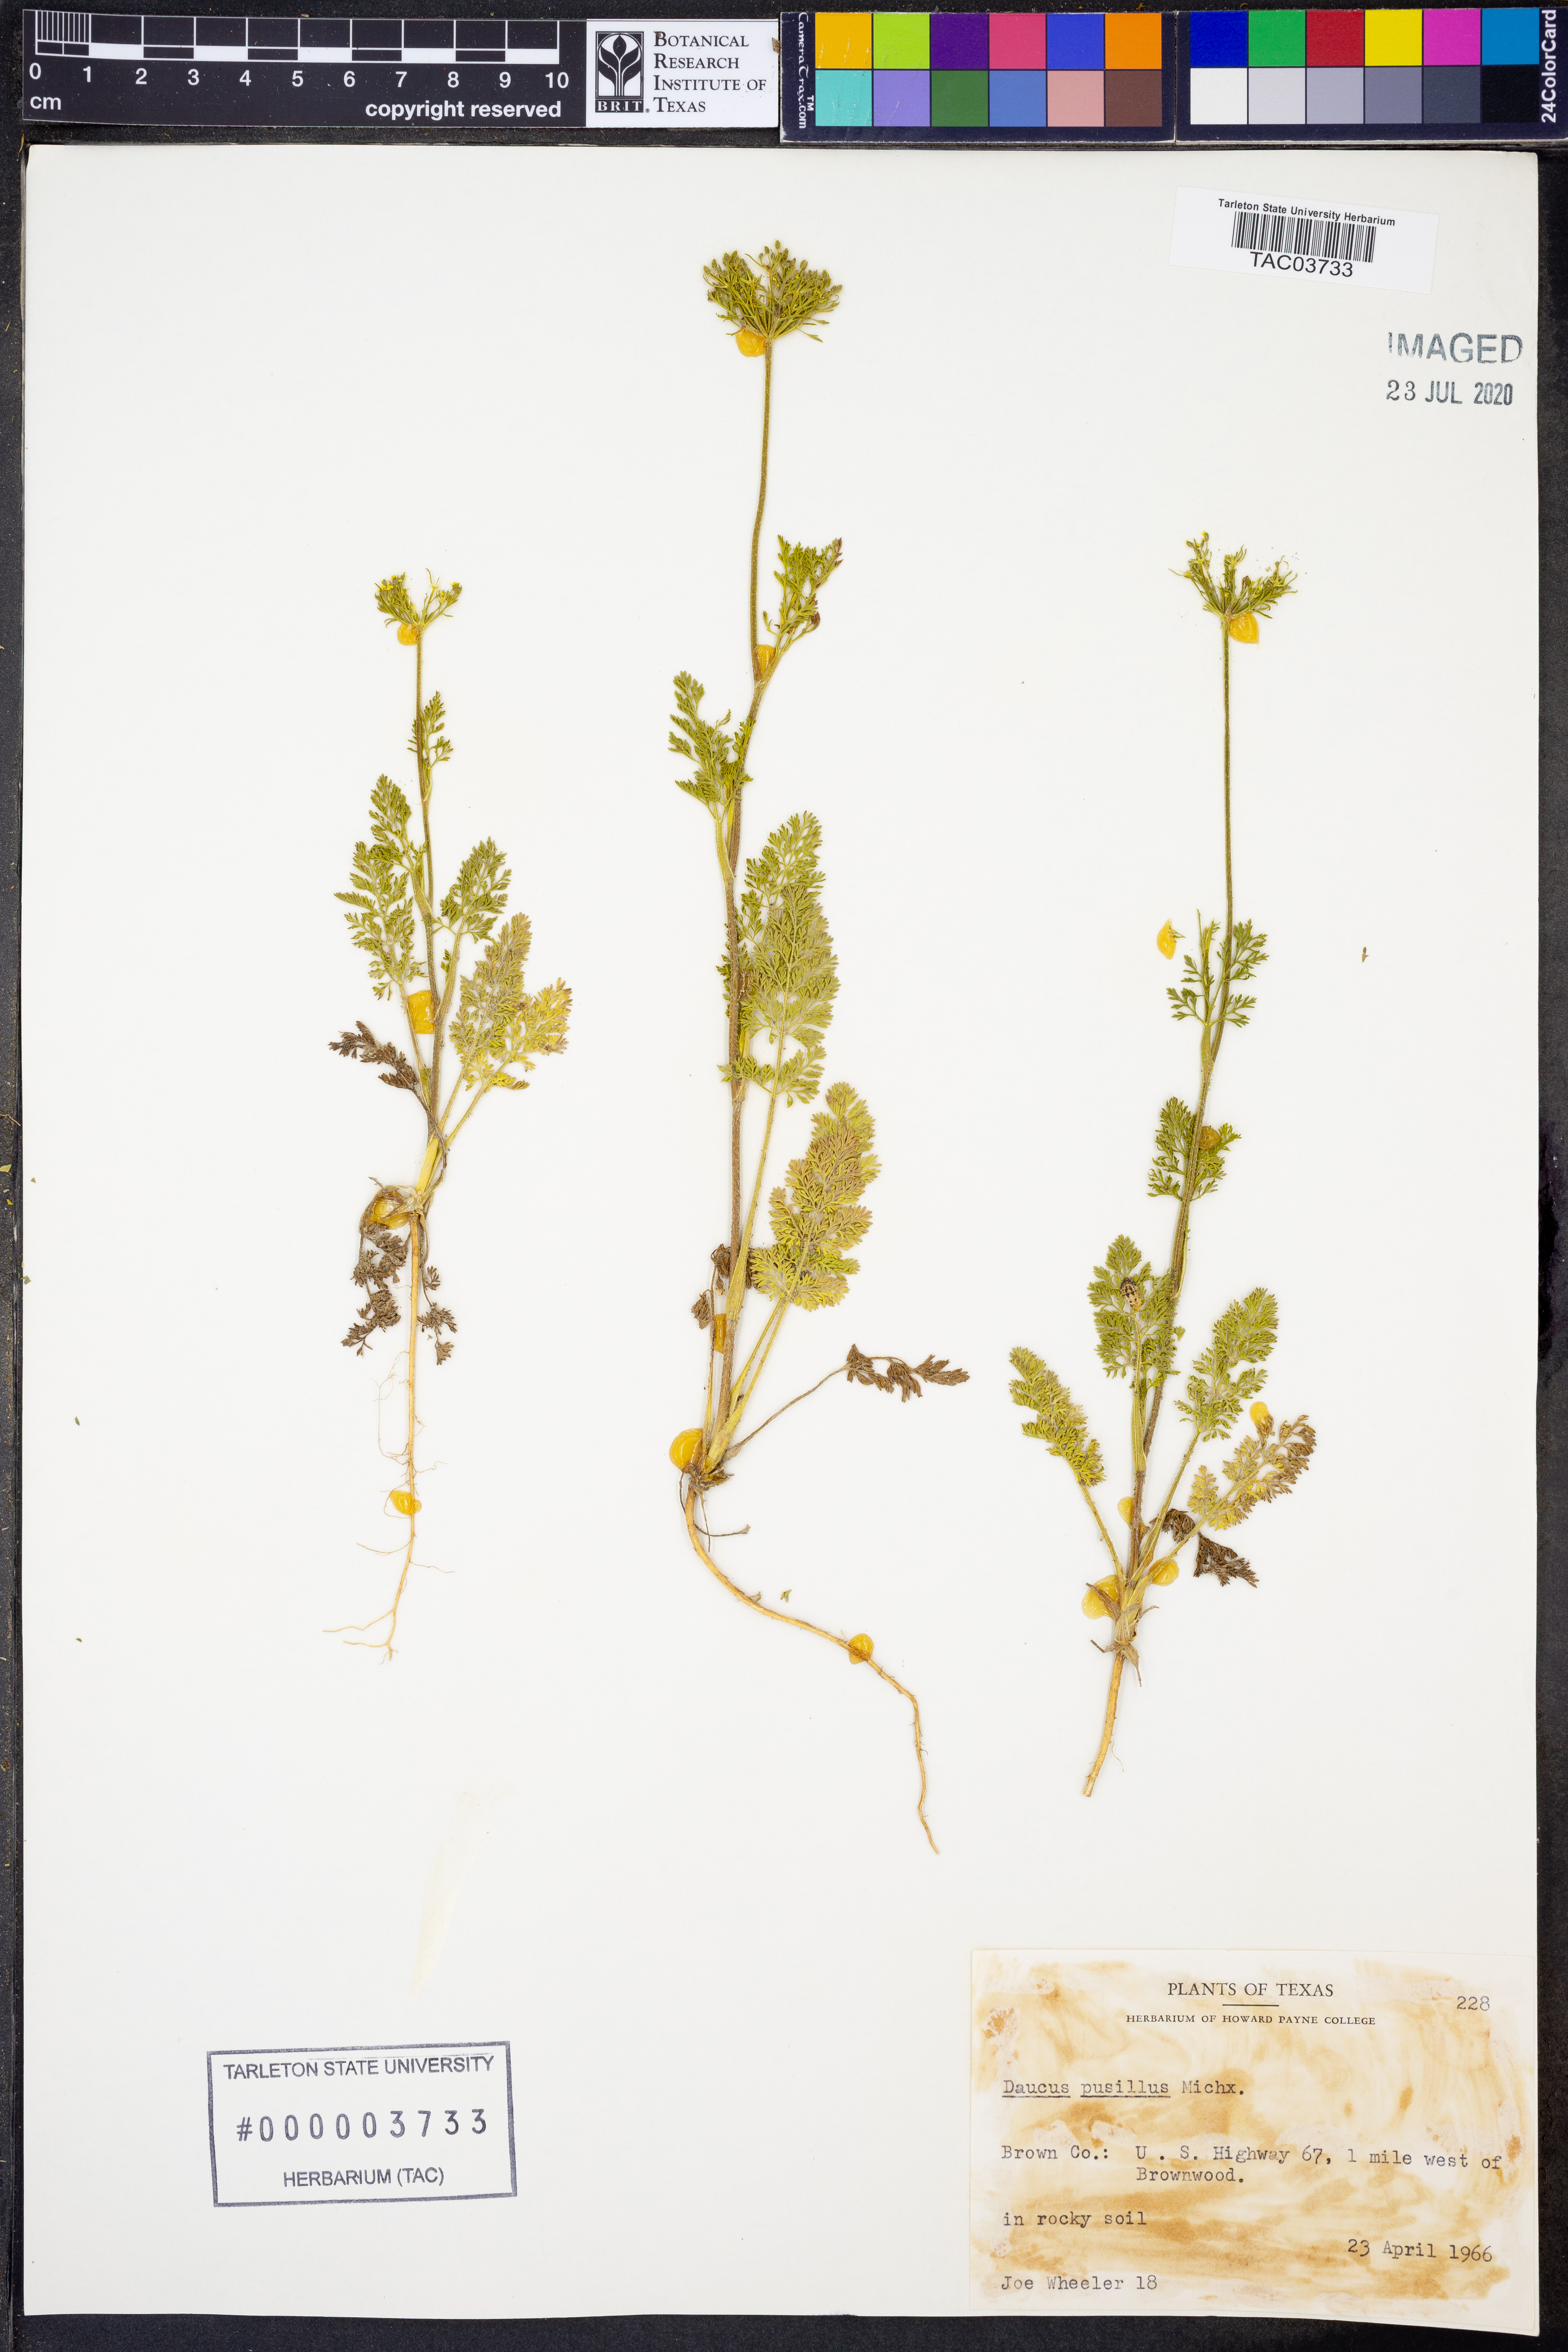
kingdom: Plantae
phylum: Tracheophyta
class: Magnoliopsida
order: Apiales
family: Apiaceae
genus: Daucus
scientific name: Daucus pusillus
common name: Southwest wild carrot
